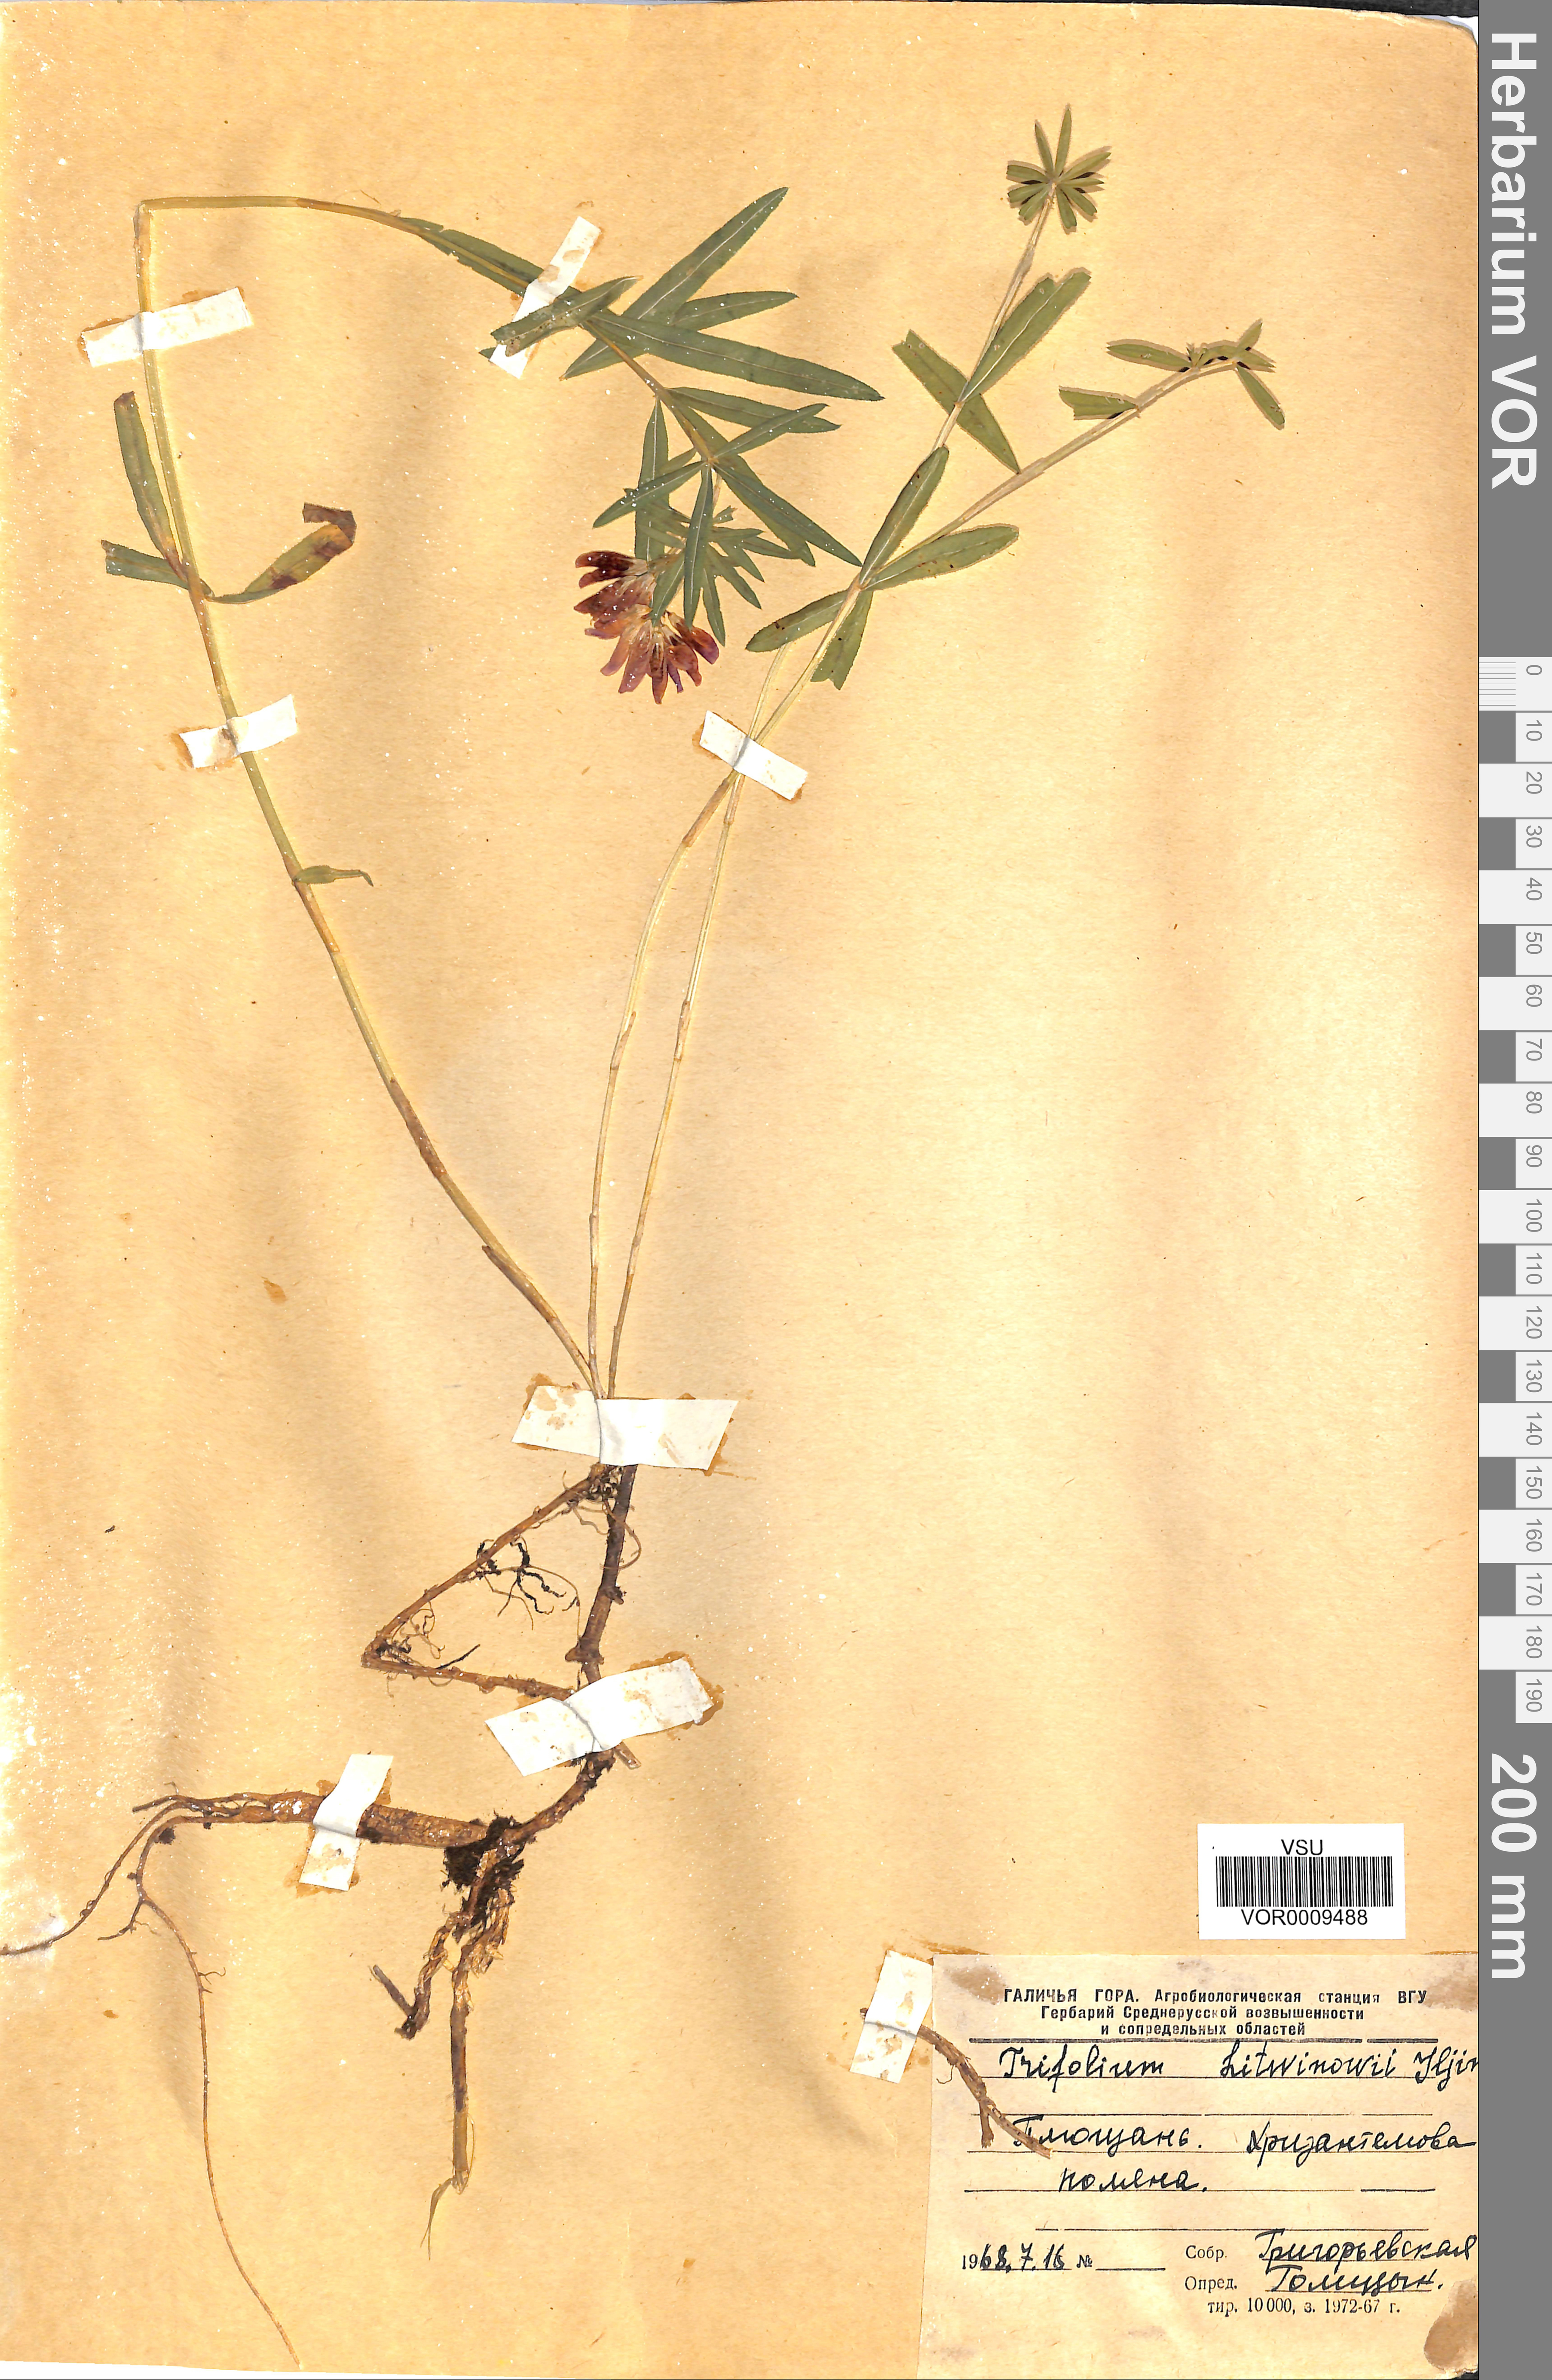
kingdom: Plantae
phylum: Tracheophyta
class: Magnoliopsida
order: Fabales
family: Fabaceae
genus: Trifolium
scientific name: Trifolium lupinaster
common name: Lupine clover
